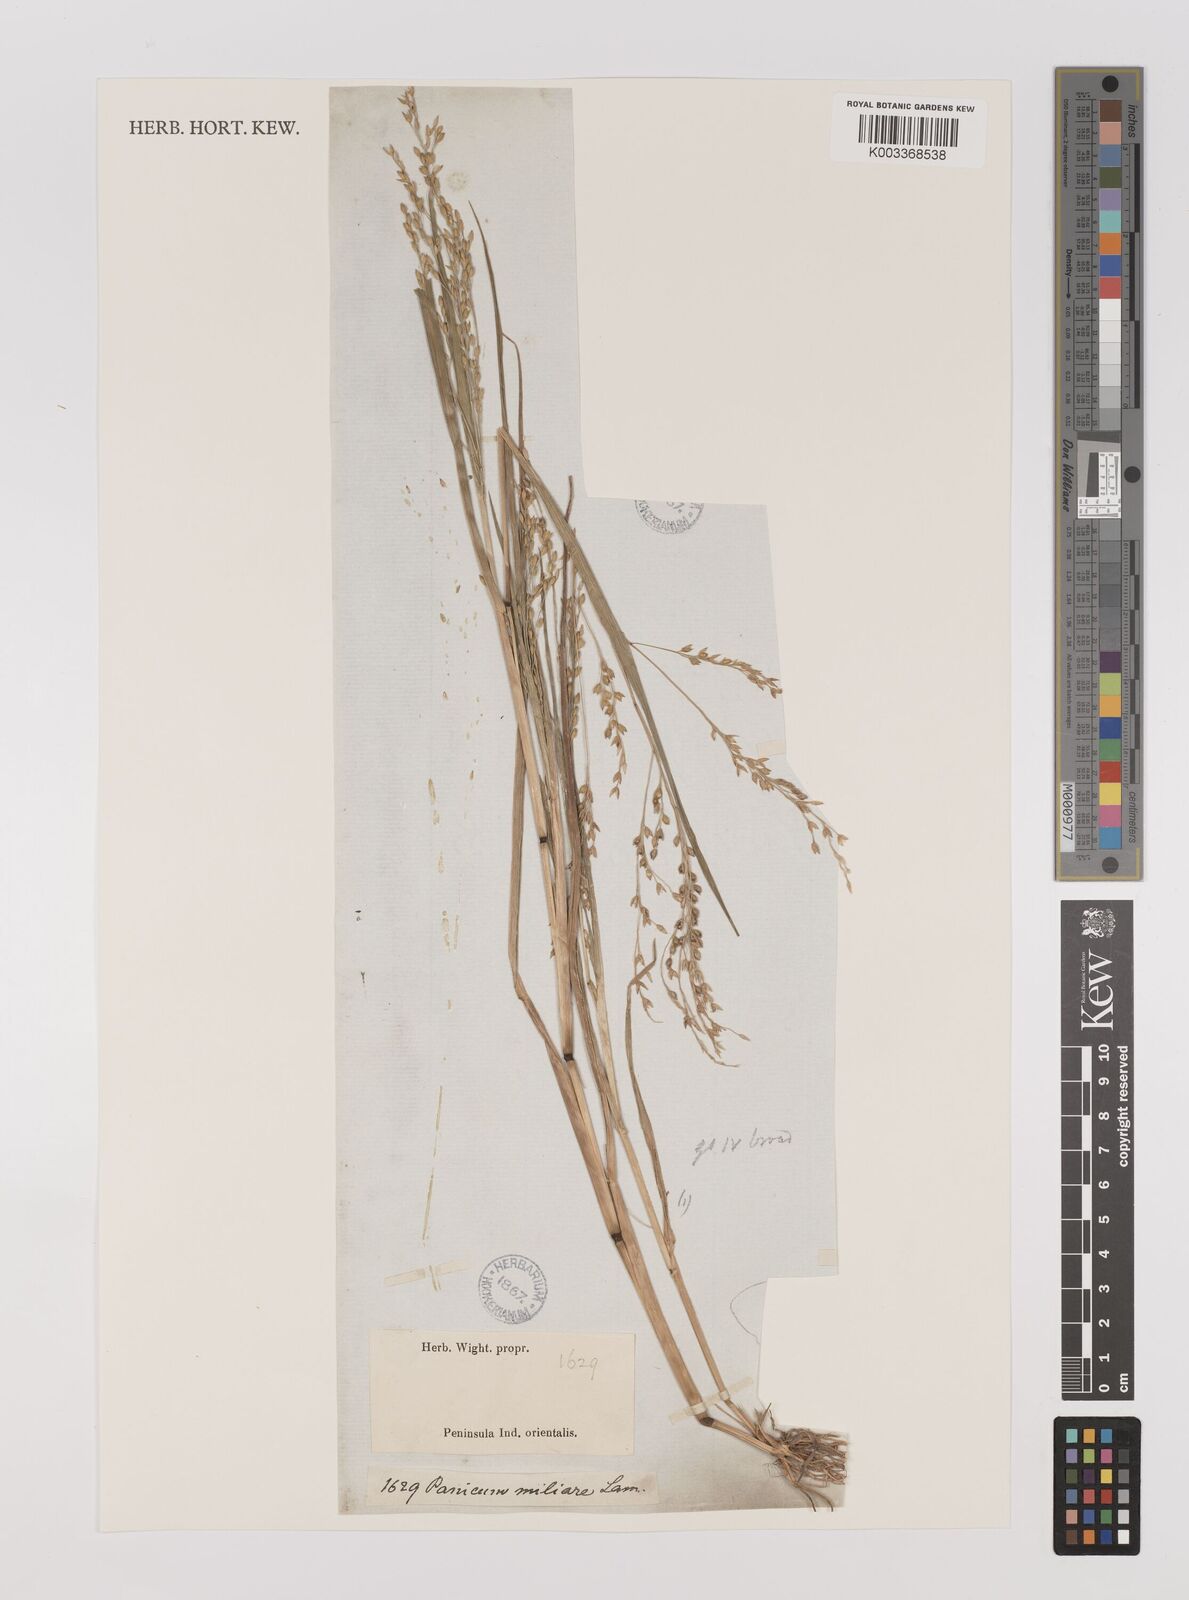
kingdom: Plantae
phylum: Tracheophyta
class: Liliopsida
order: Poales
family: Poaceae
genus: Panicum
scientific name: Panicum sumatrense
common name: Little millet
